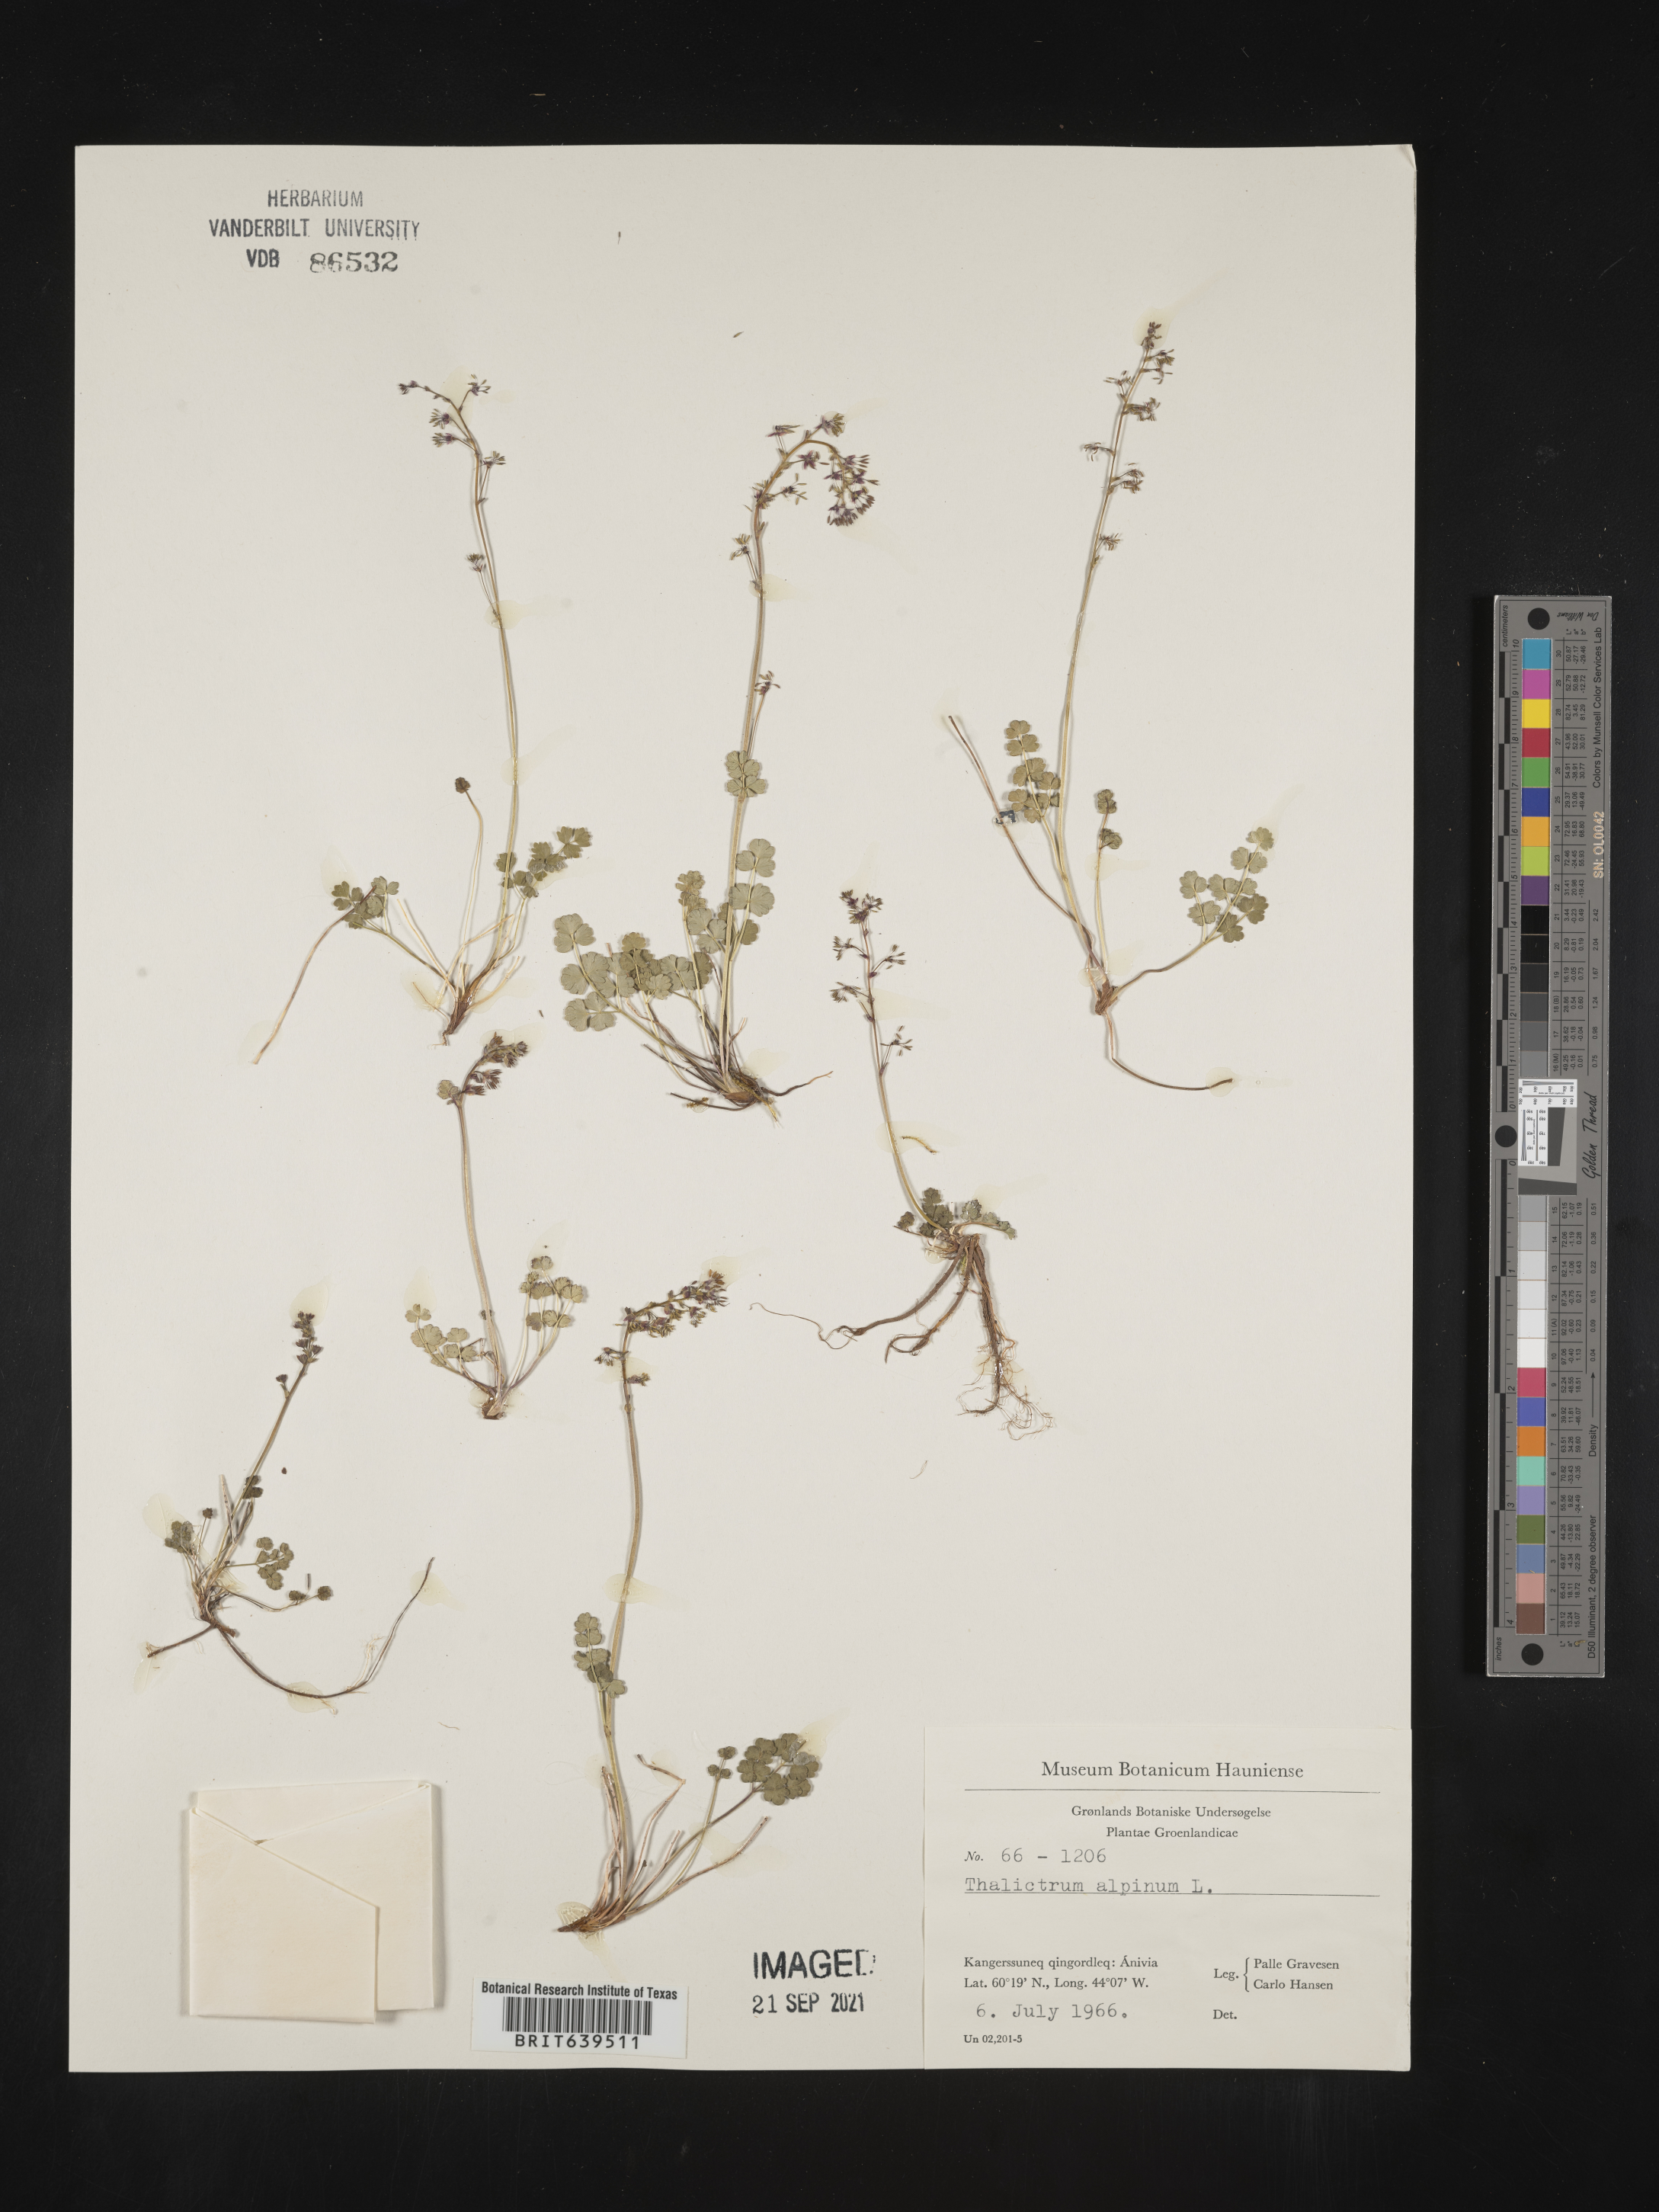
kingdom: Plantae
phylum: Tracheophyta
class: Magnoliopsida
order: Ranunculales
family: Ranunculaceae
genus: Thalictrum
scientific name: Thalictrum
